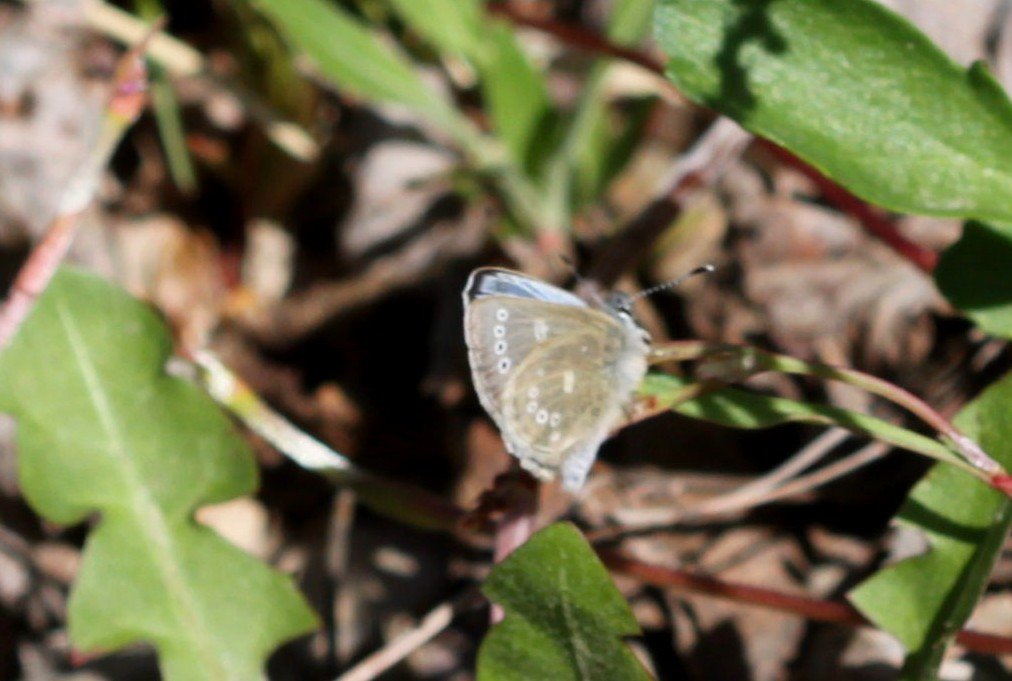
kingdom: Animalia
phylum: Arthropoda
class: Insecta
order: Lepidoptera
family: Lycaenidae
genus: Glaucopsyche
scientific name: Glaucopsyche lygdamus
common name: Silvery Blue
